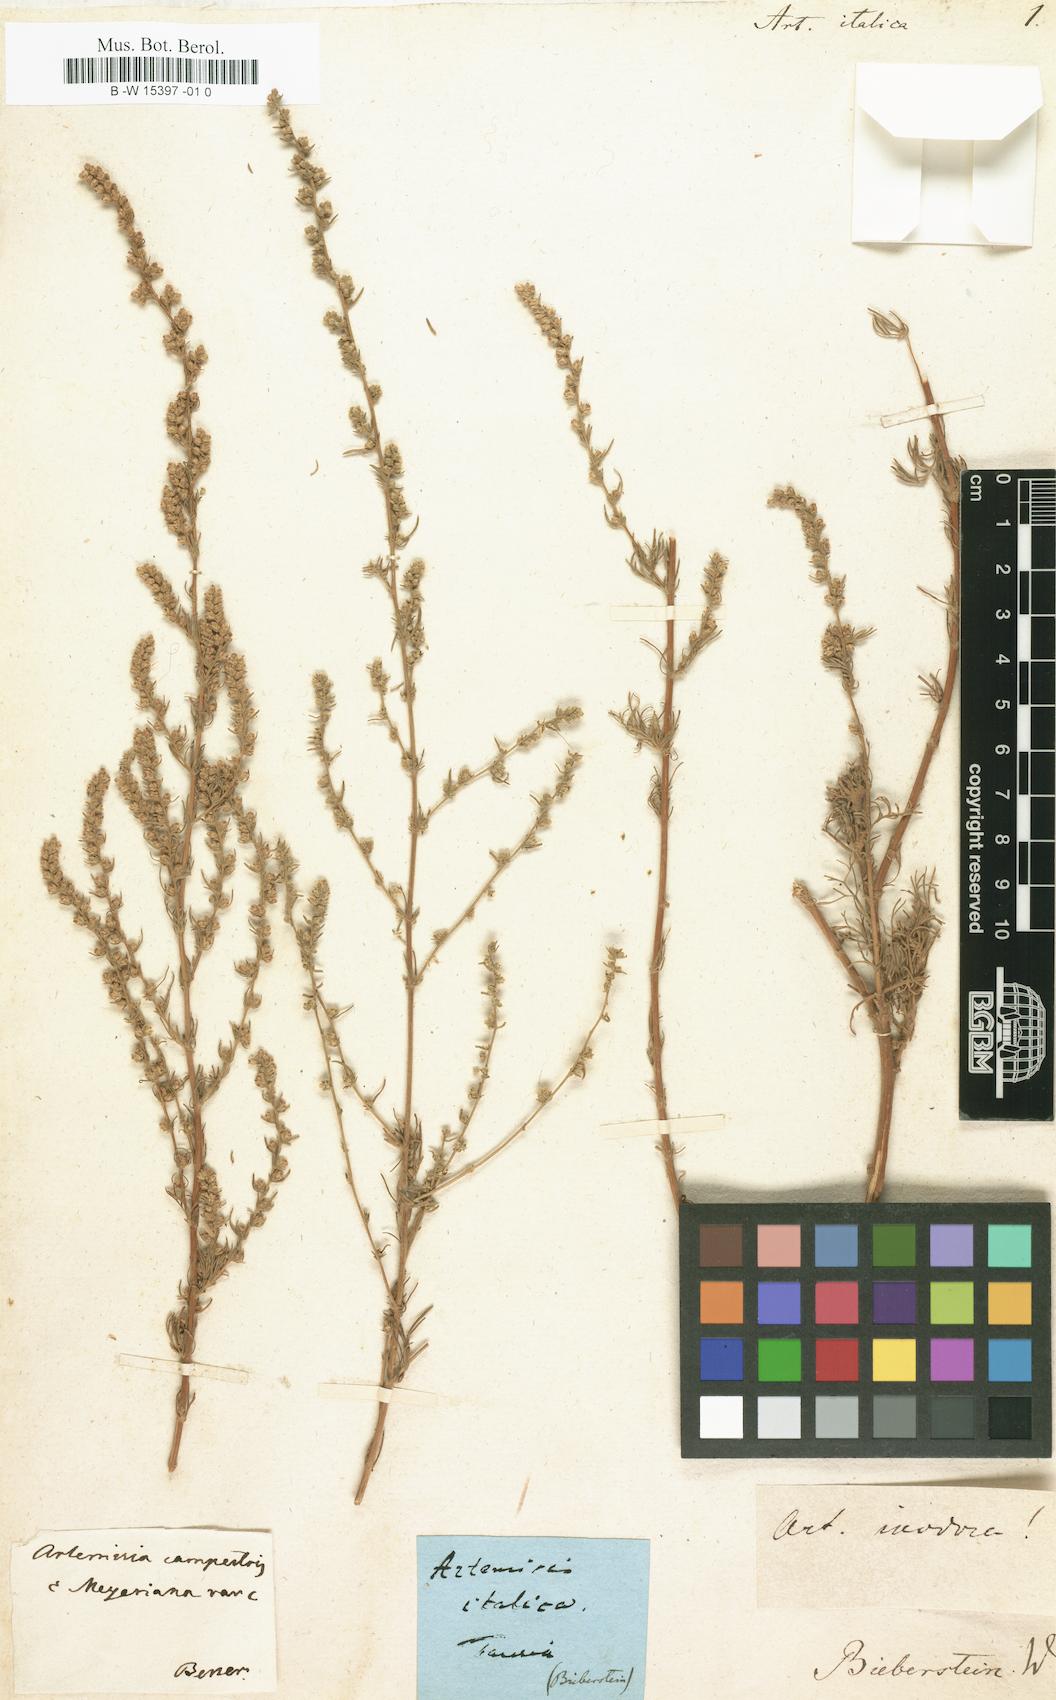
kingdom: Plantae
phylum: Tracheophyta
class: Magnoliopsida
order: Asterales
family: Asteraceae
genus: Artemisia
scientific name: Artemisia campestris
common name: Field wormwood
